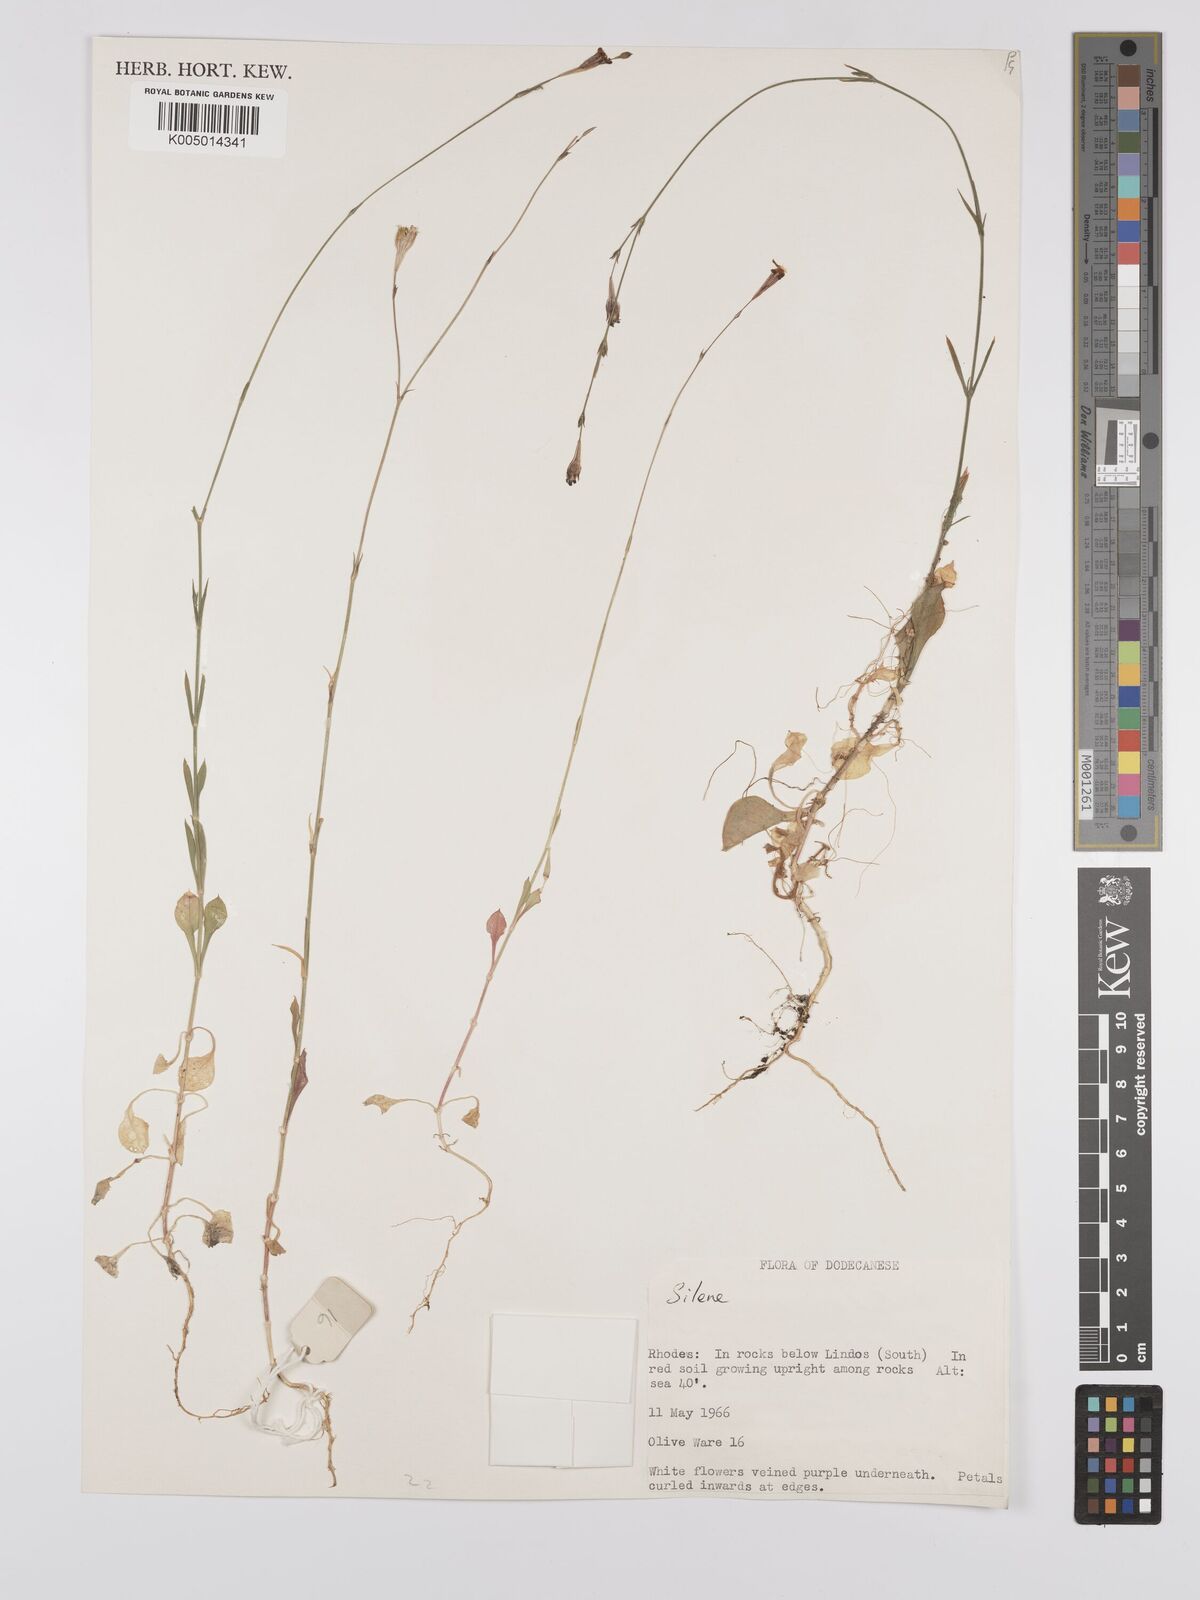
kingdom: Plantae
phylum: Tracheophyta
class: Magnoliopsida
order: Caryophyllales
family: Caryophyllaceae
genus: Silene
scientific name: Silene
